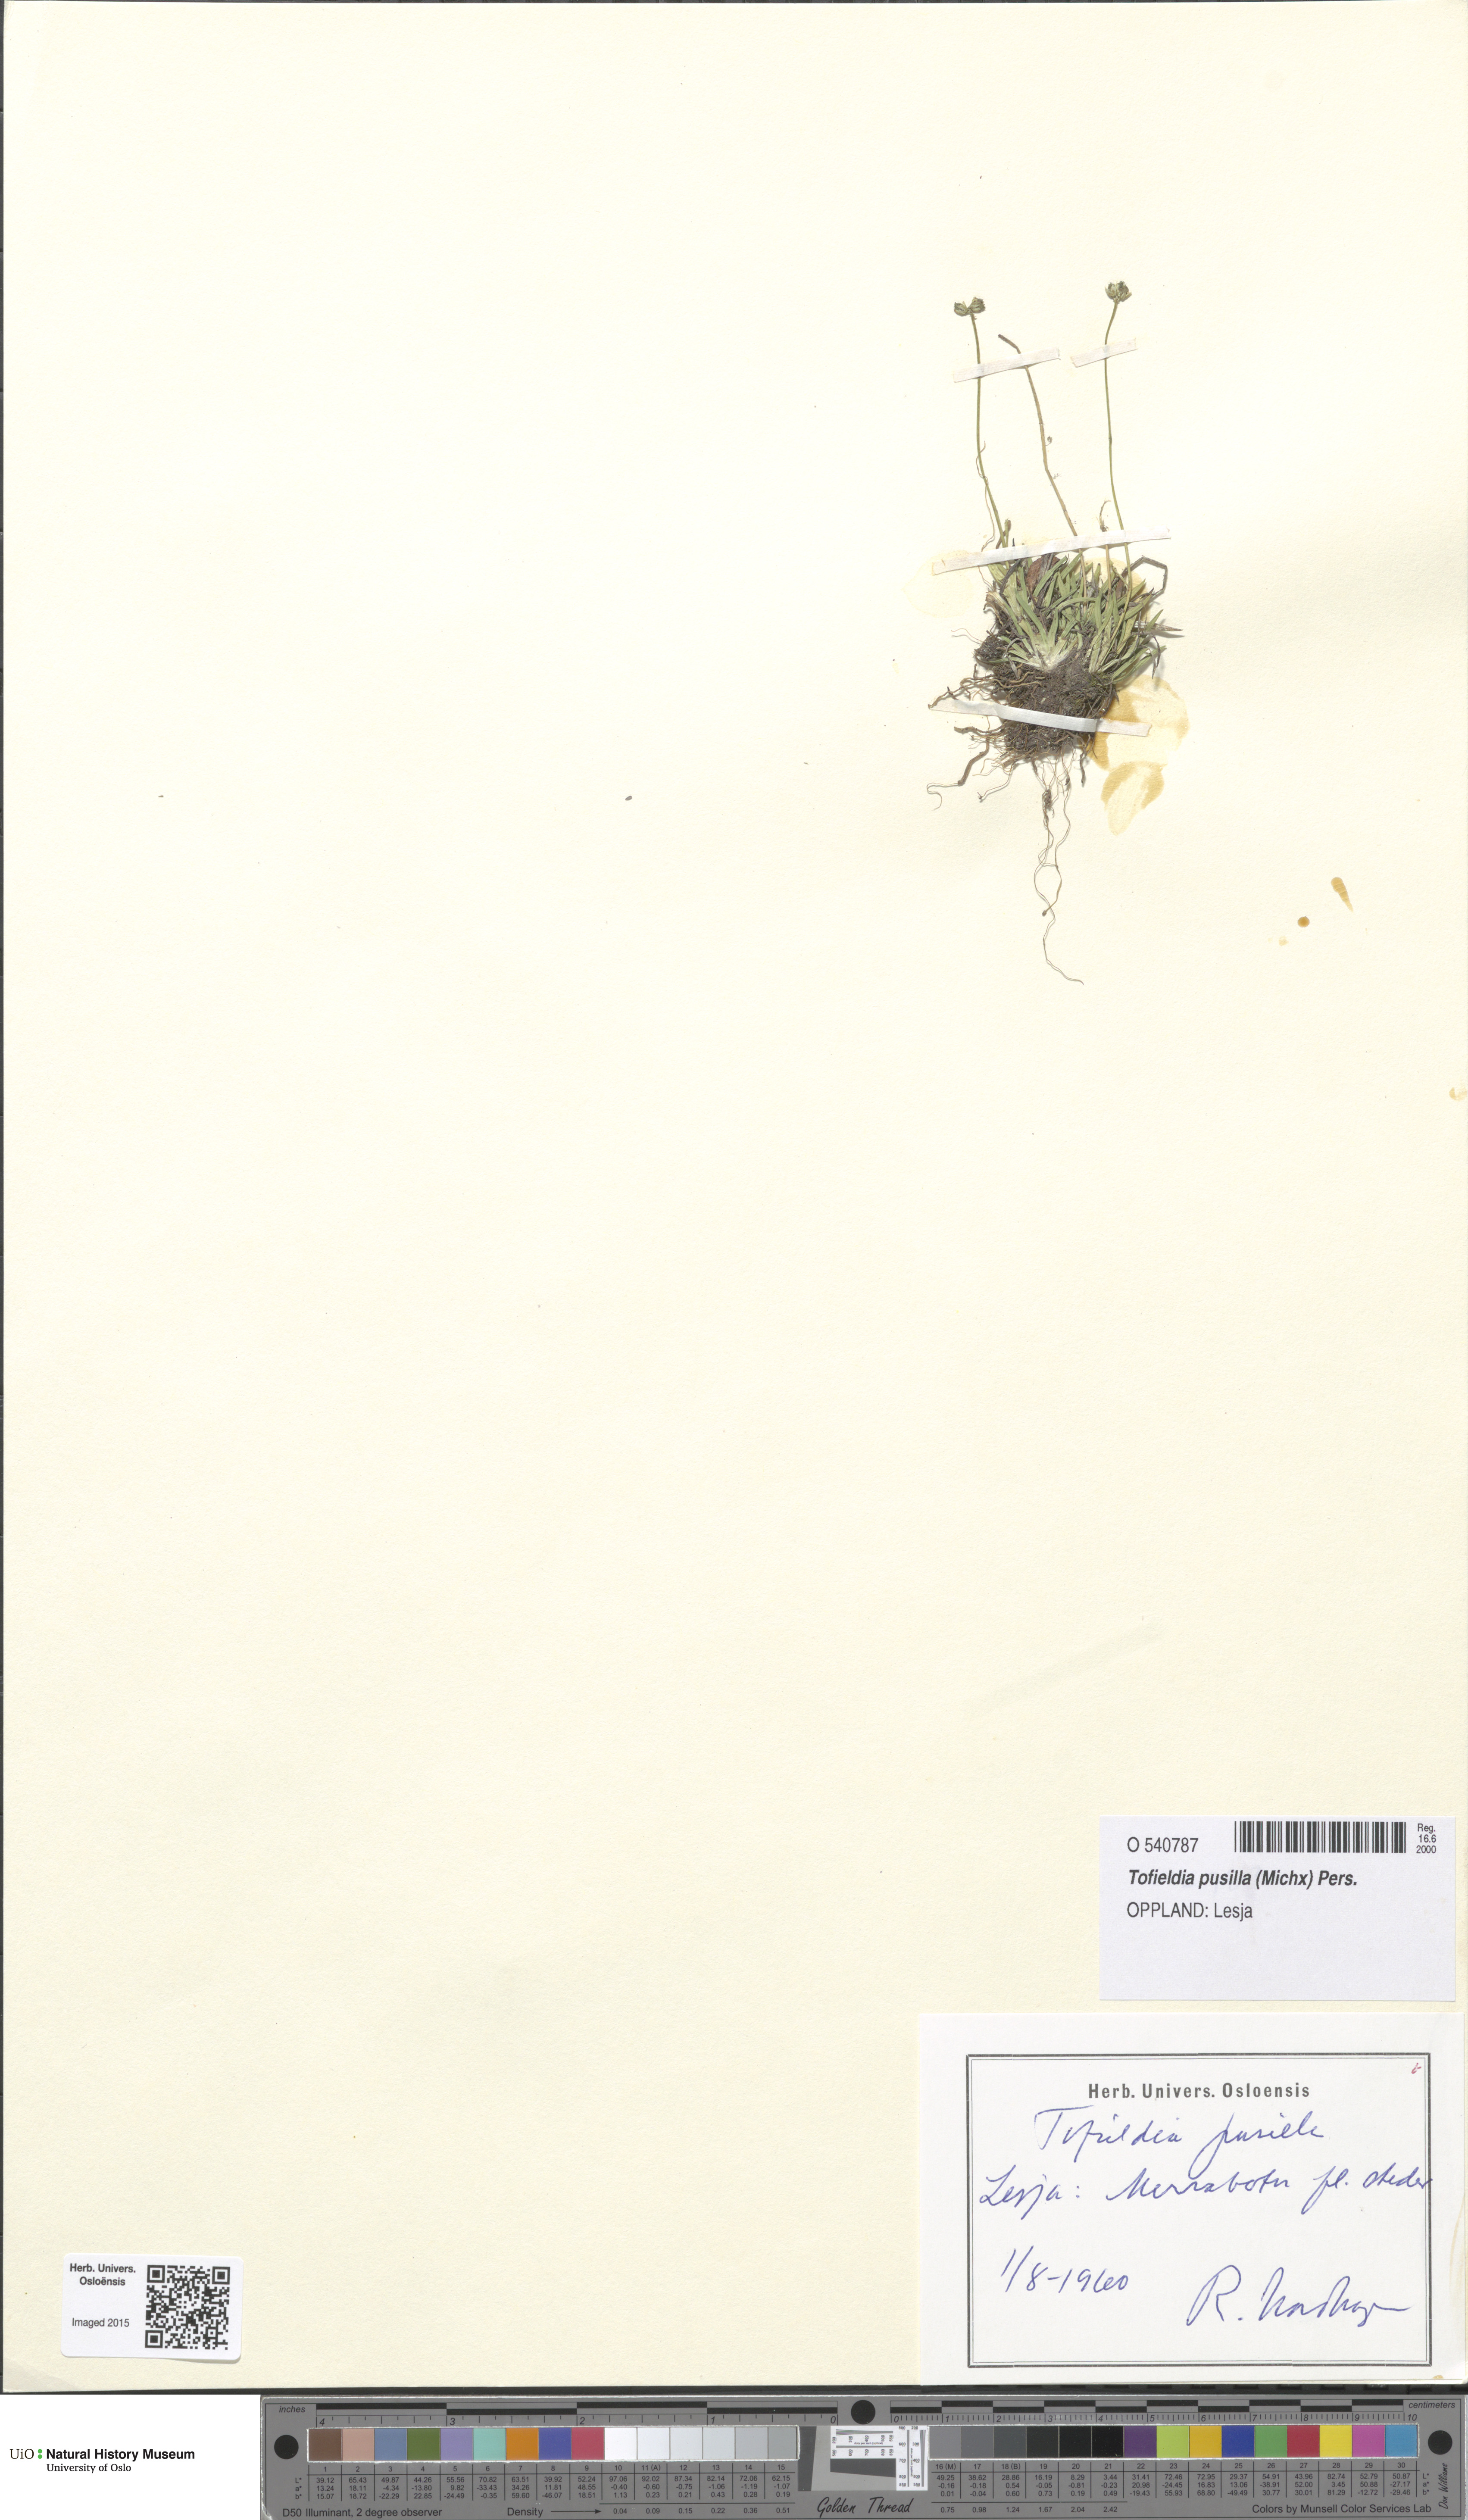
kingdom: Plantae
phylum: Tracheophyta
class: Liliopsida
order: Alismatales
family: Tofieldiaceae
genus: Tofieldia
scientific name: Tofieldia pusilla
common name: Scottish false asphodel
